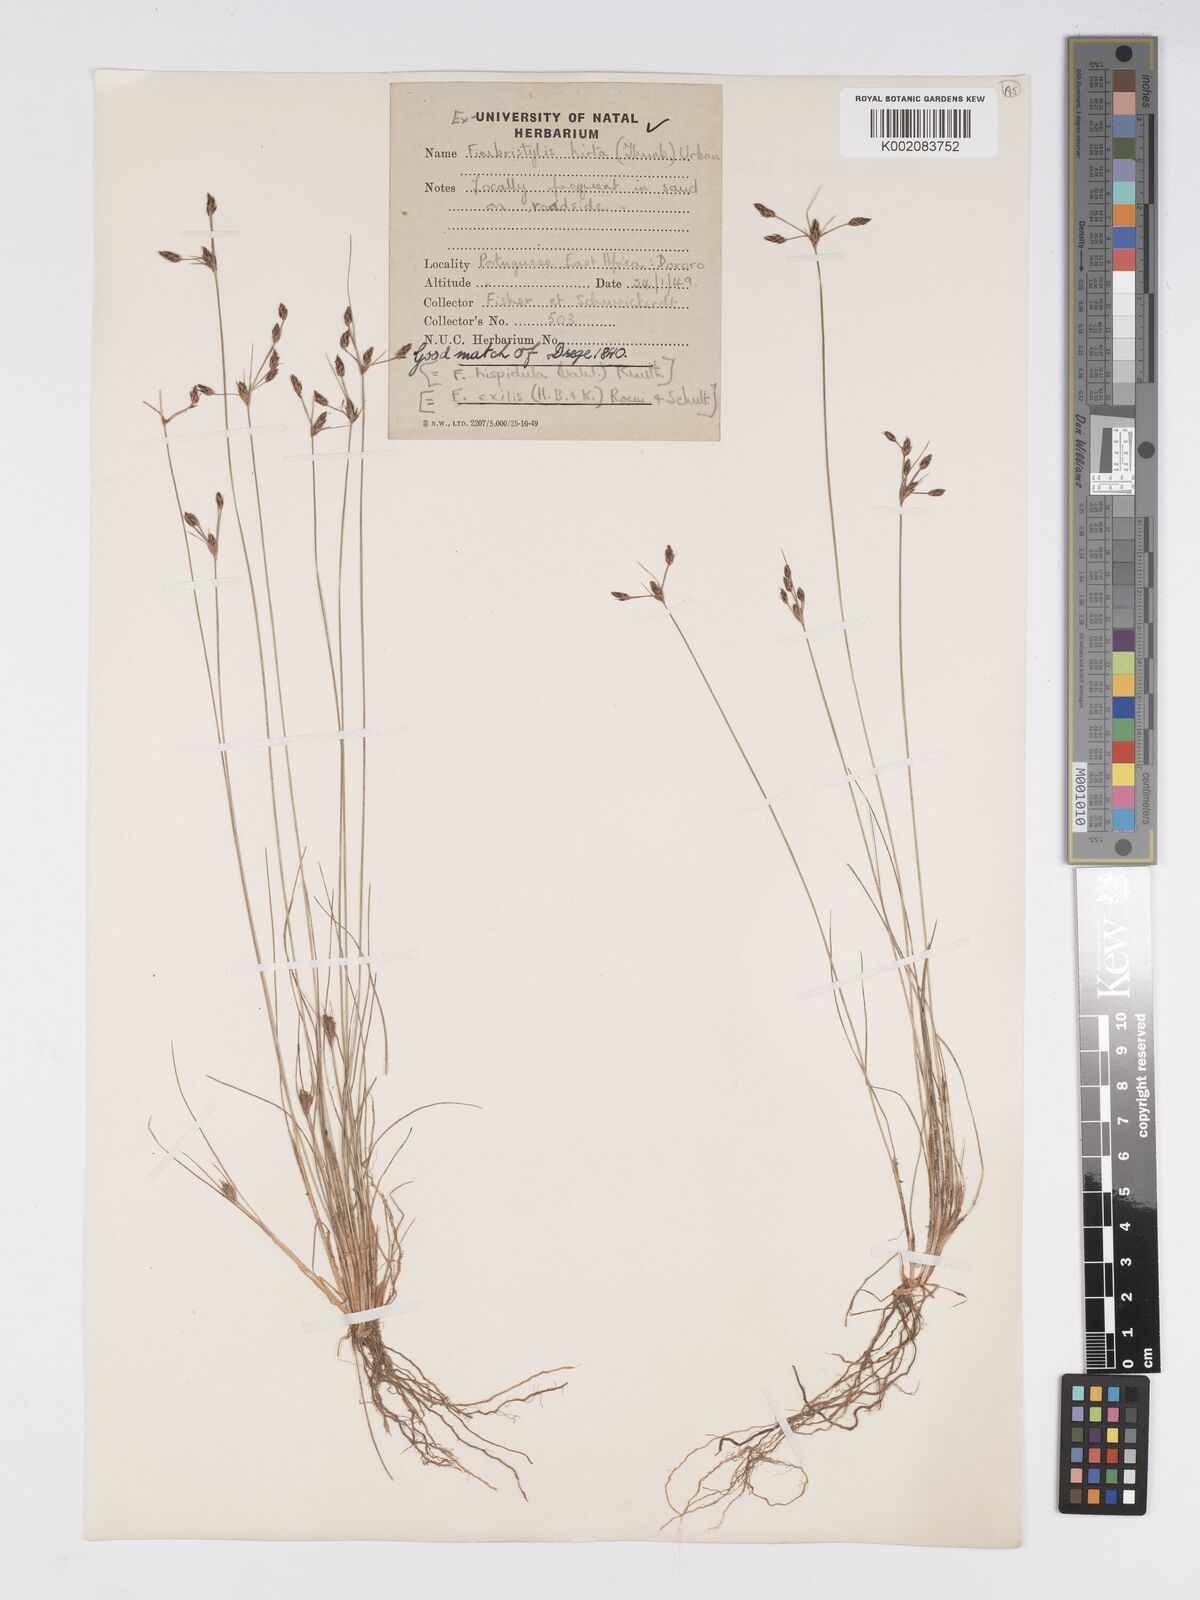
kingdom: Plantae
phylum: Tracheophyta
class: Liliopsida
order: Poales
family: Cyperaceae
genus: Bulbostylis
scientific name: Bulbostylis hispidula
